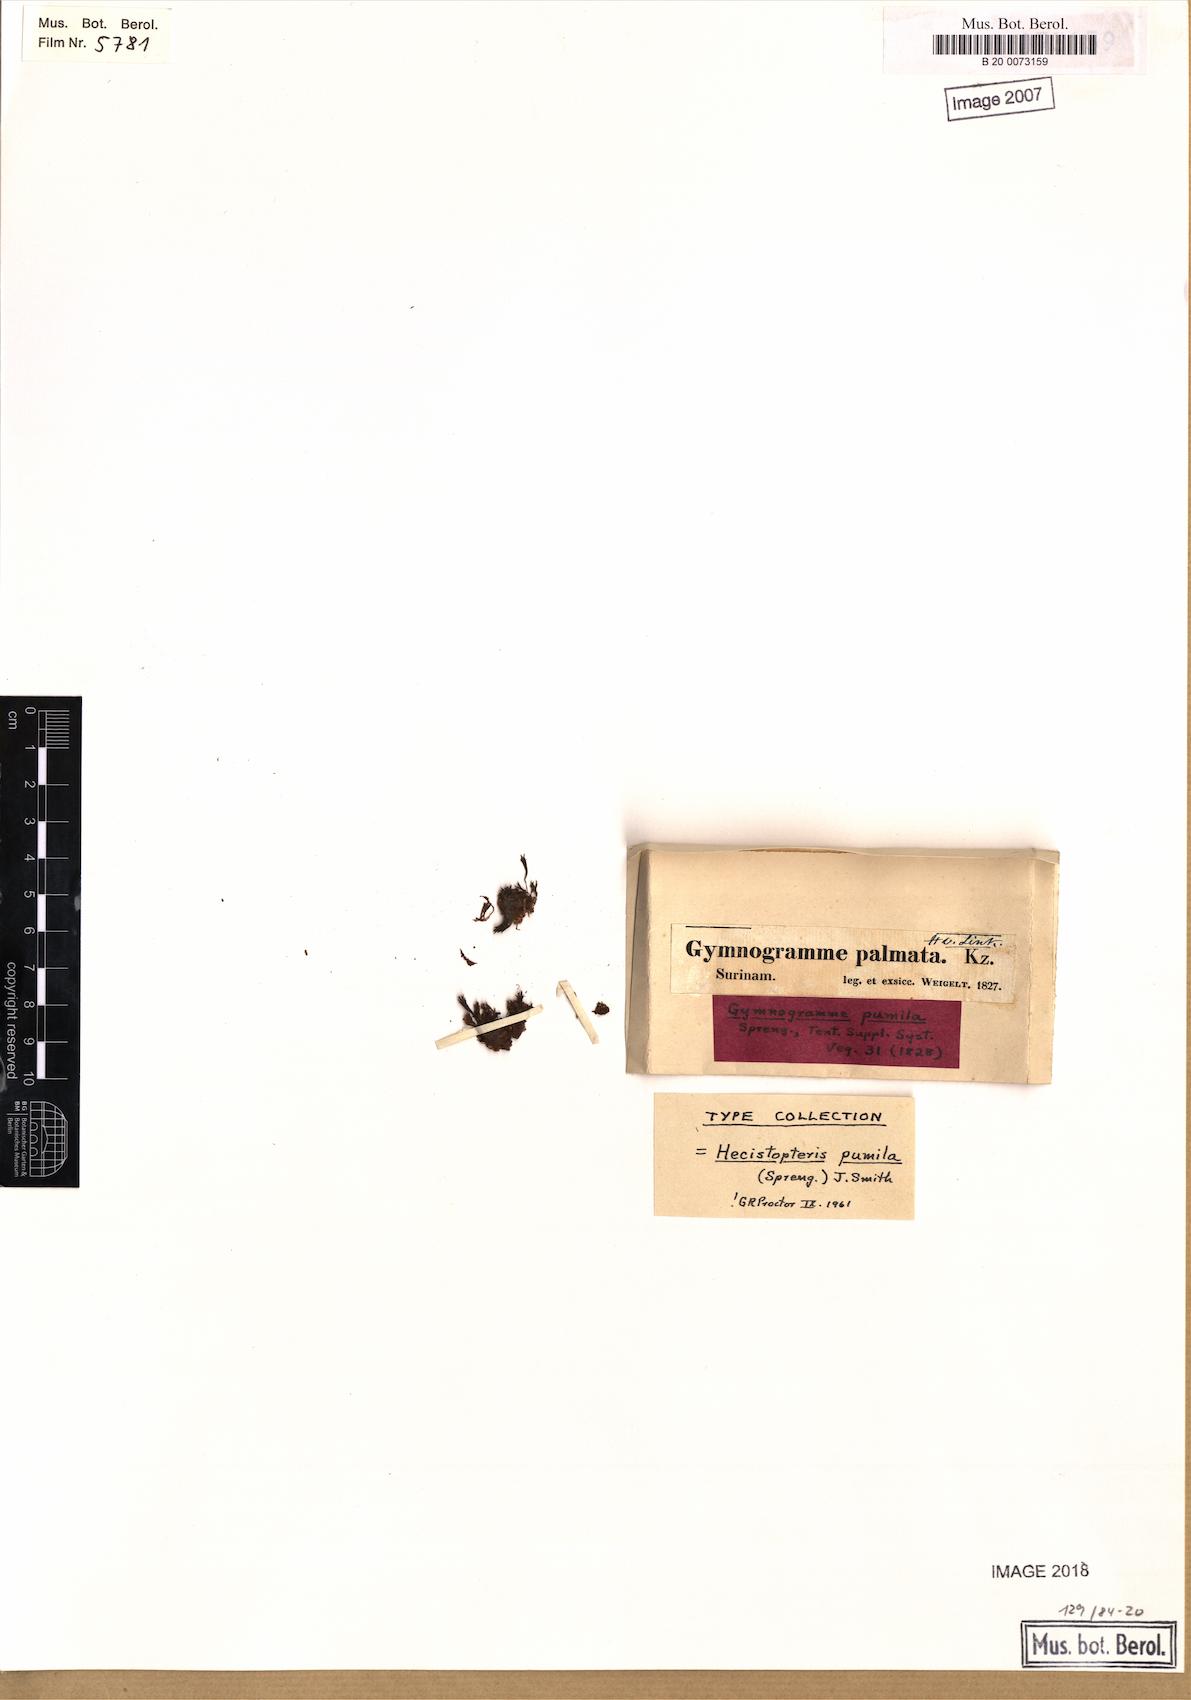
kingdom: Plantae
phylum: Tracheophyta
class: Polypodiopsida
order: Polypodiales
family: Pteridaceae
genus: Hecistopteris
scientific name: Hecistopteris pumila
